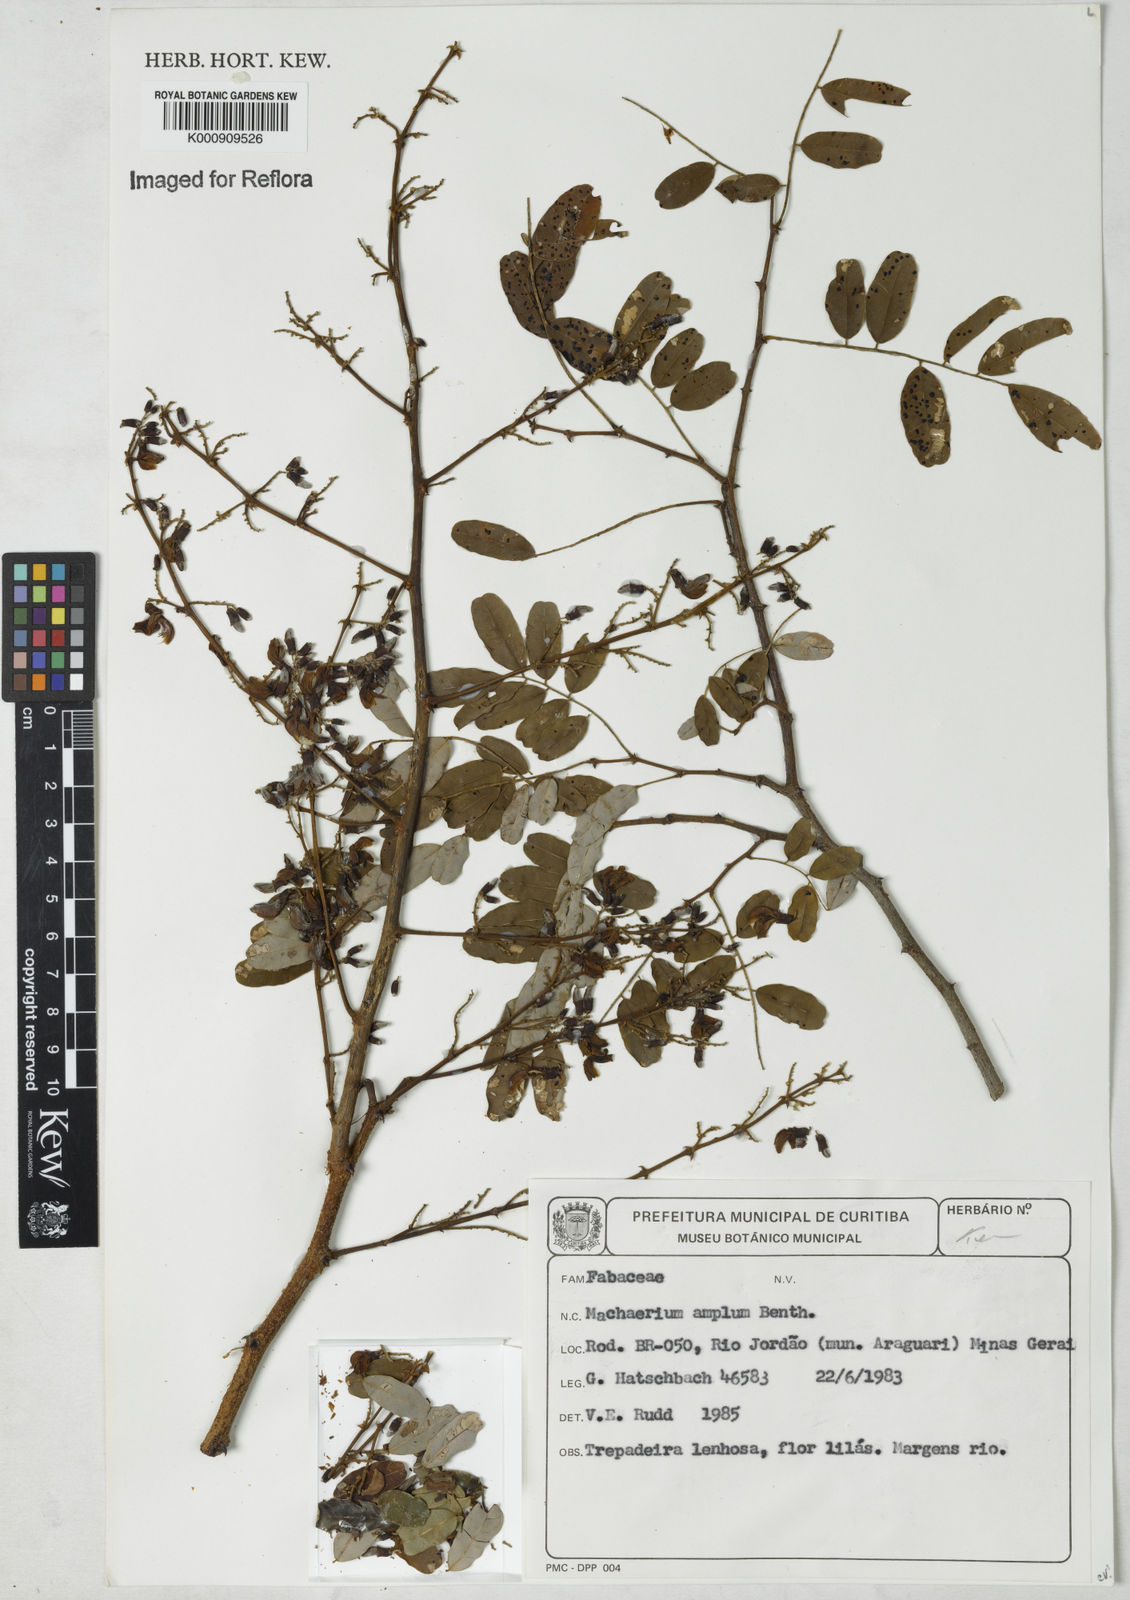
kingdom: Plantae
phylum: Tracheophyta
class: Magnoliopsida
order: Fabales
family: Fabaceae
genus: Machaerium
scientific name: Machaerium amplum
